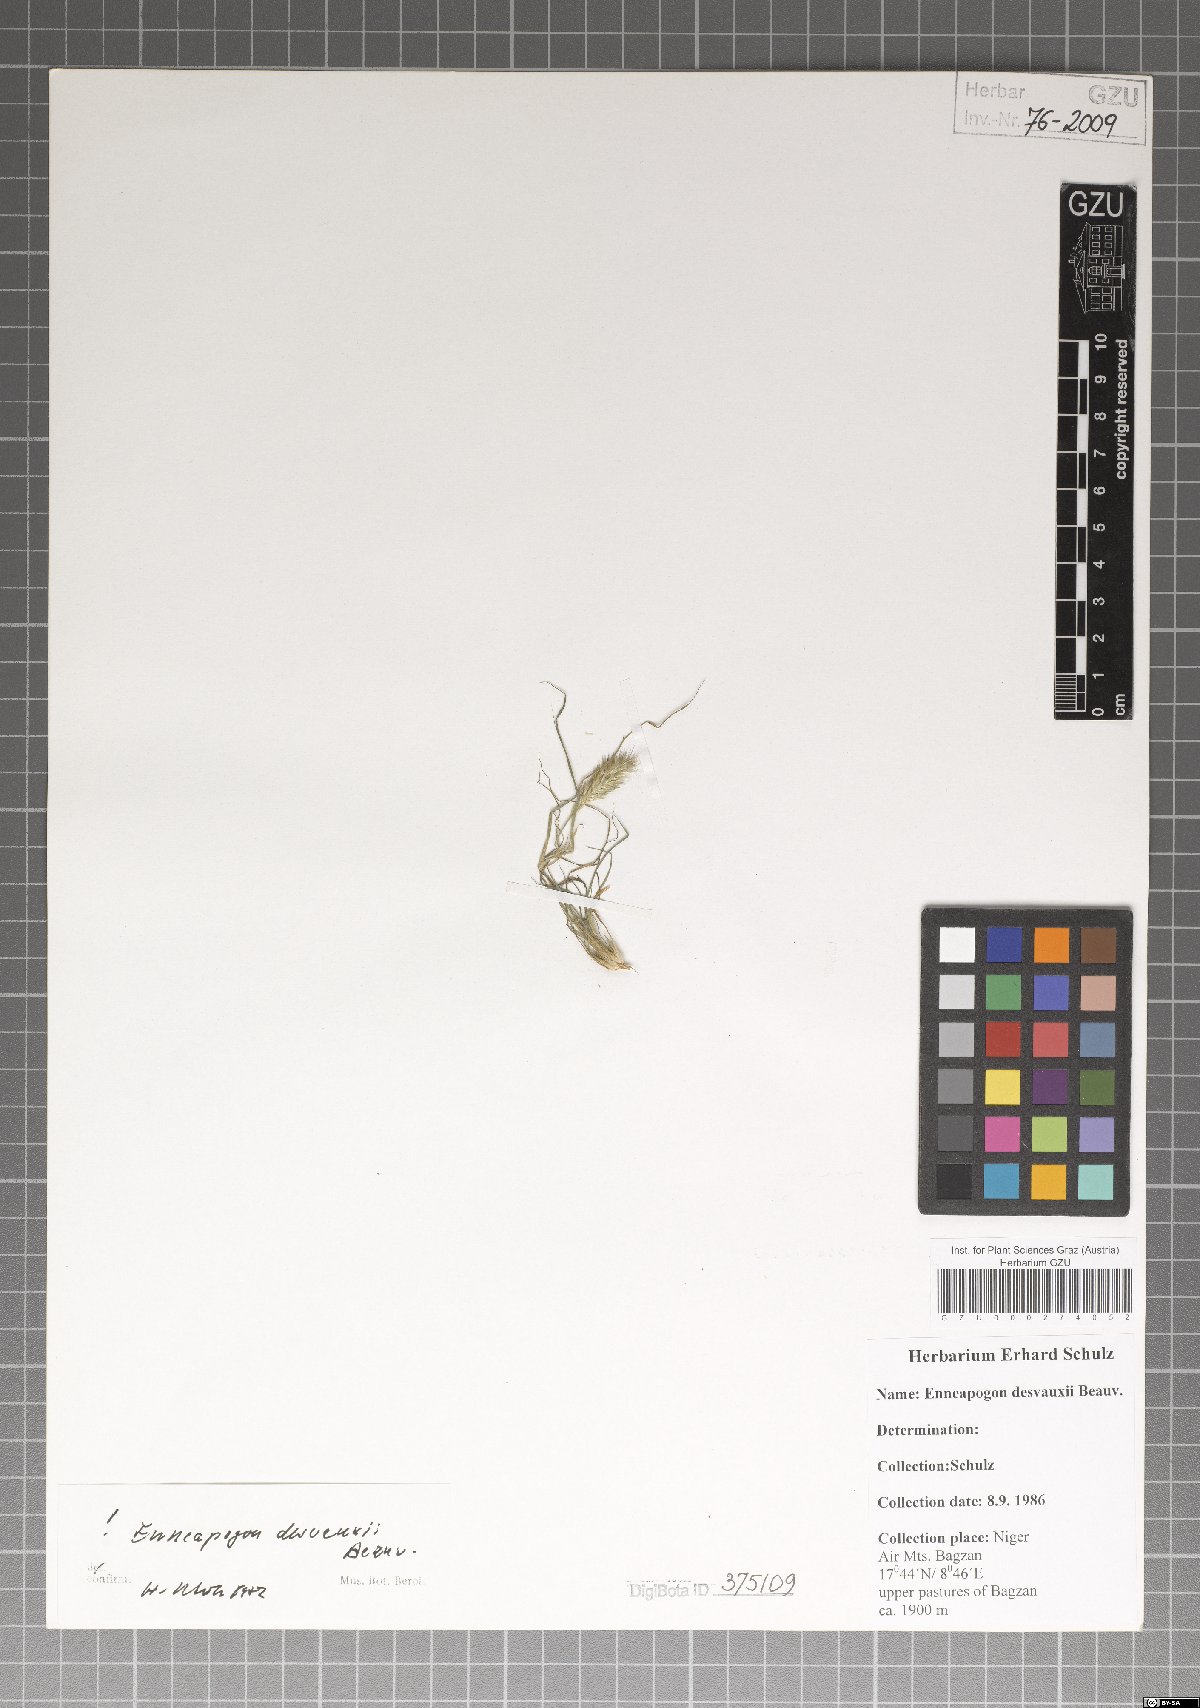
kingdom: Plantae
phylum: Tracheophyta
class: Liliopsida
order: Poales
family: Poaceae
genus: Enneapogon
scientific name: Enneapogon desvauxii
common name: Feather pappus grass
